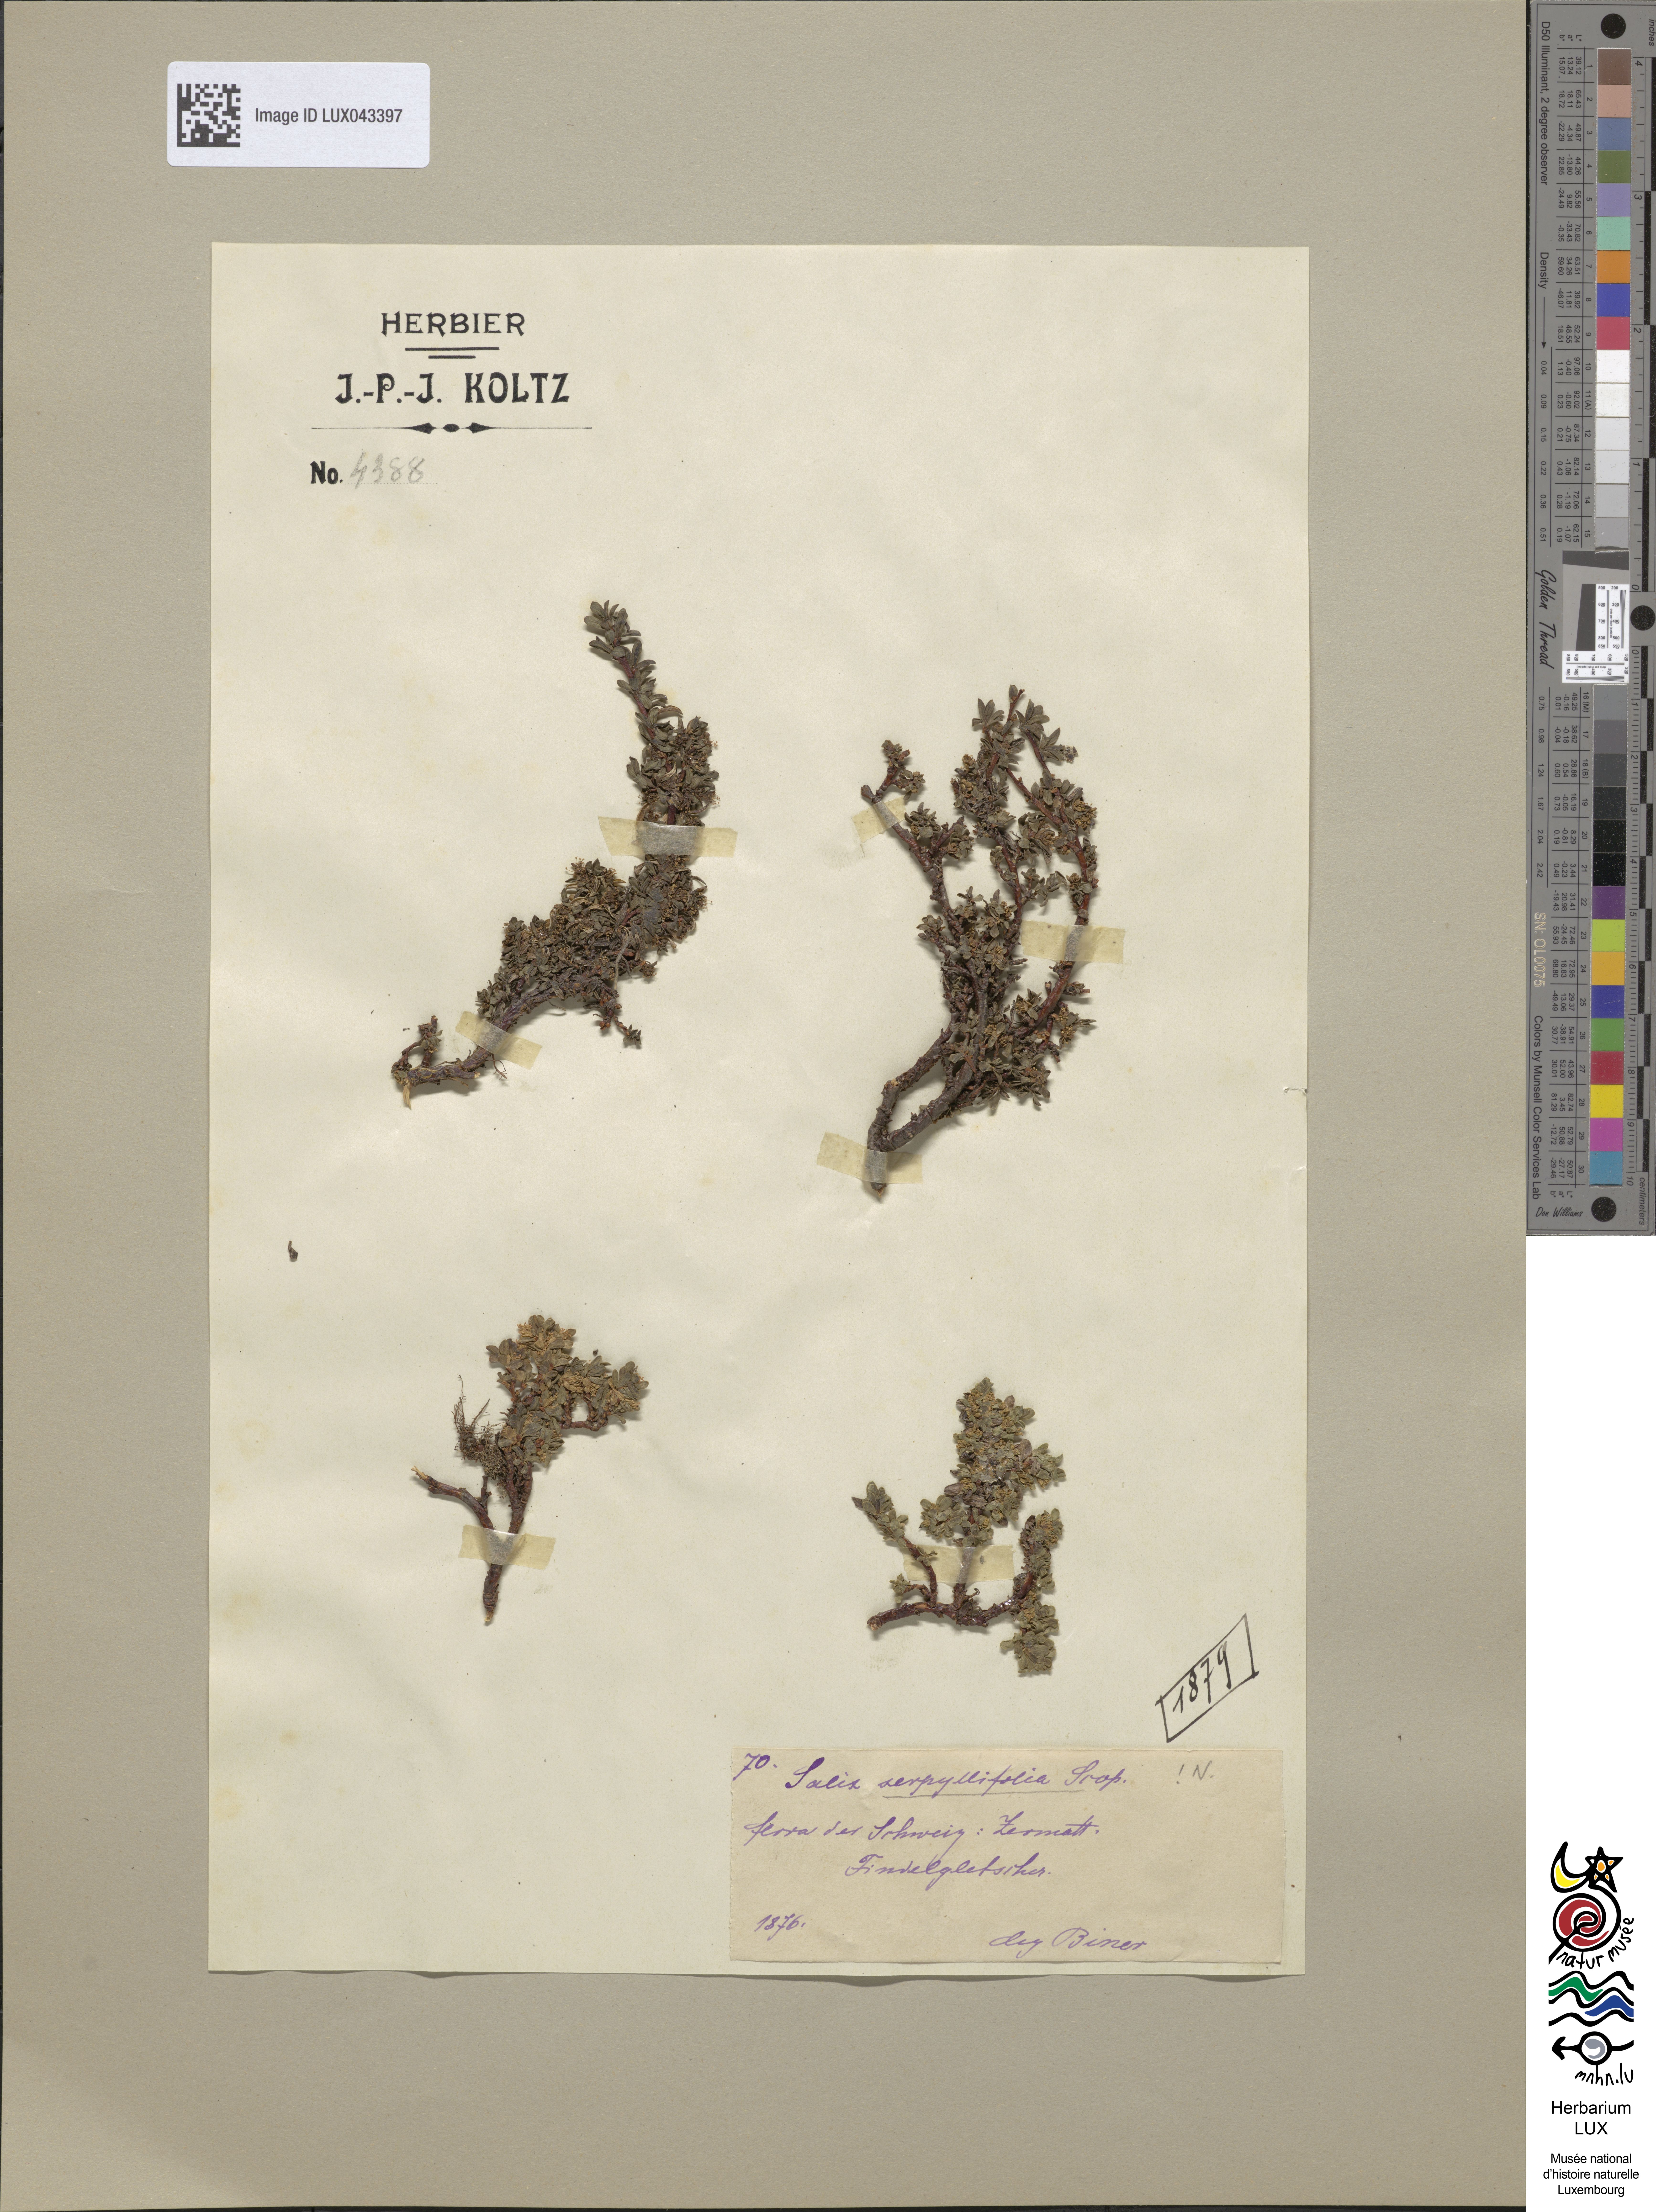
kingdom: Plantae
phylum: Tracheophyta
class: Magnoliopsida
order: Malpighiales
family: Salicaceae
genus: Salix
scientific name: Salix retusa
